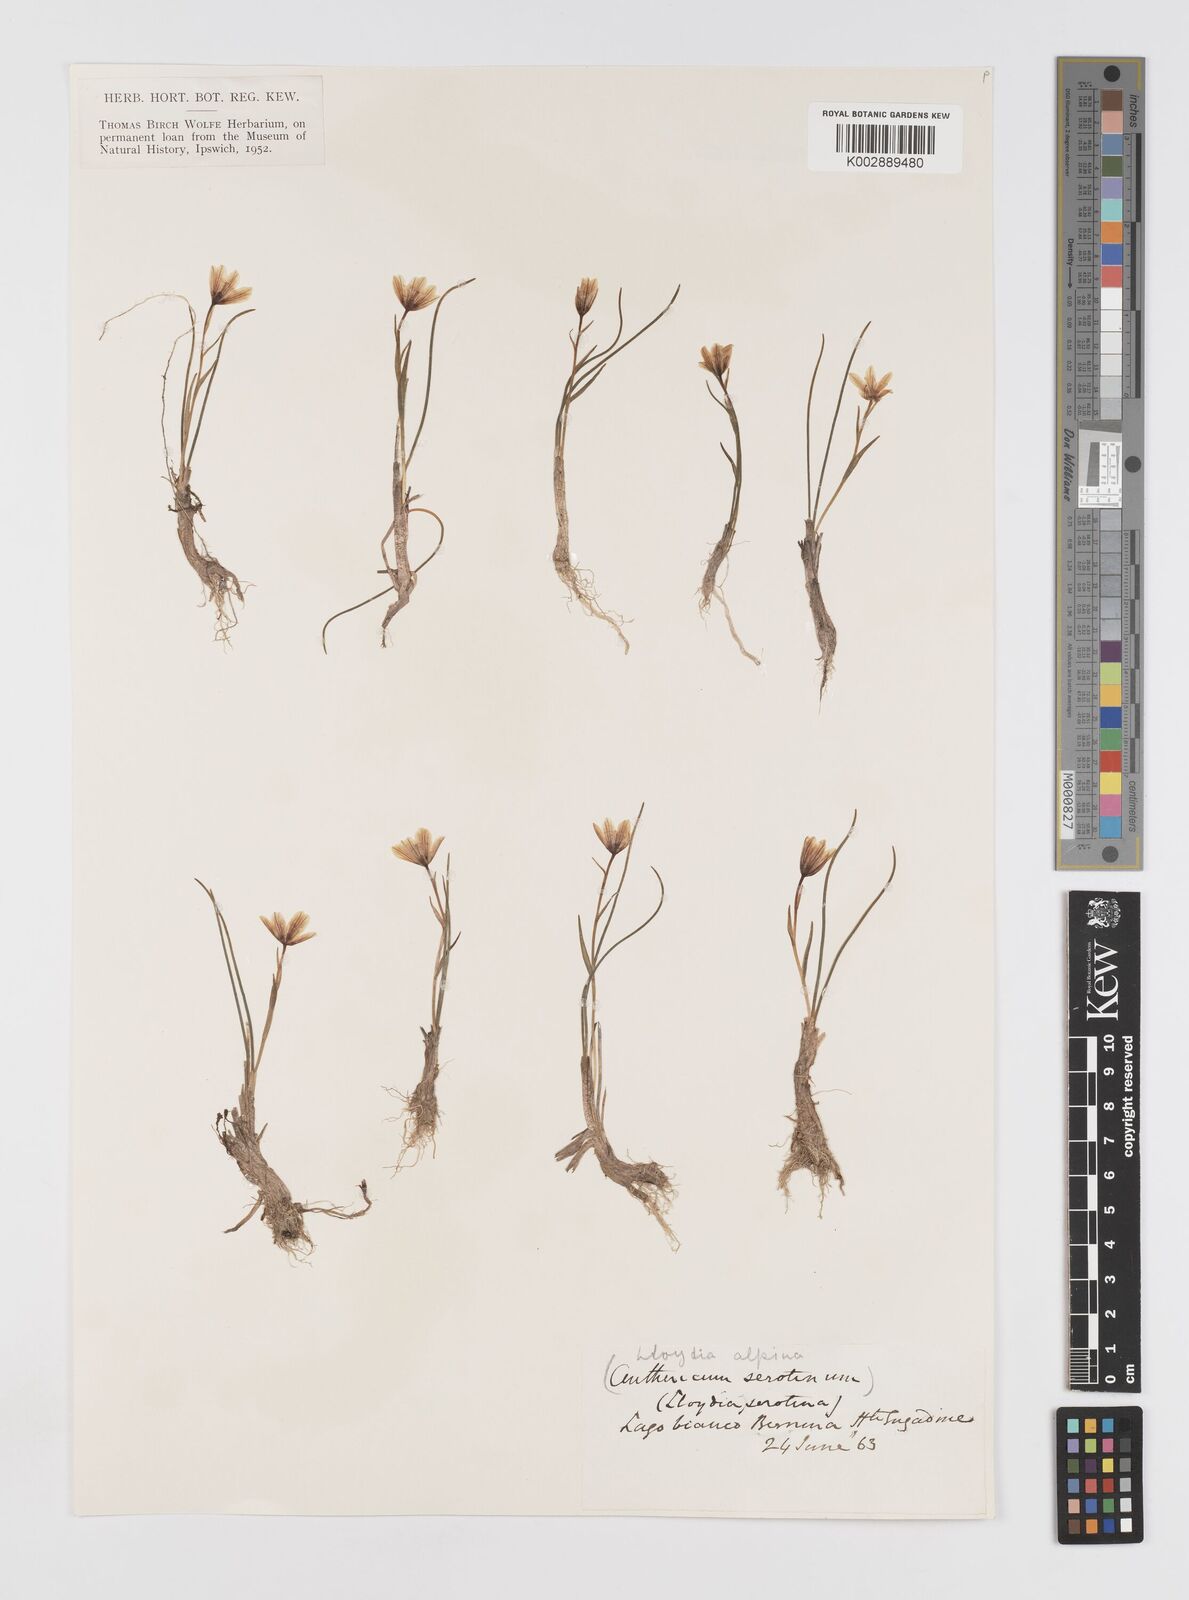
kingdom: Plantae
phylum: Tracheophyta
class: Liliopsida
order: Liliales
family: Liliaceae
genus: Gagea
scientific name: Gagea
